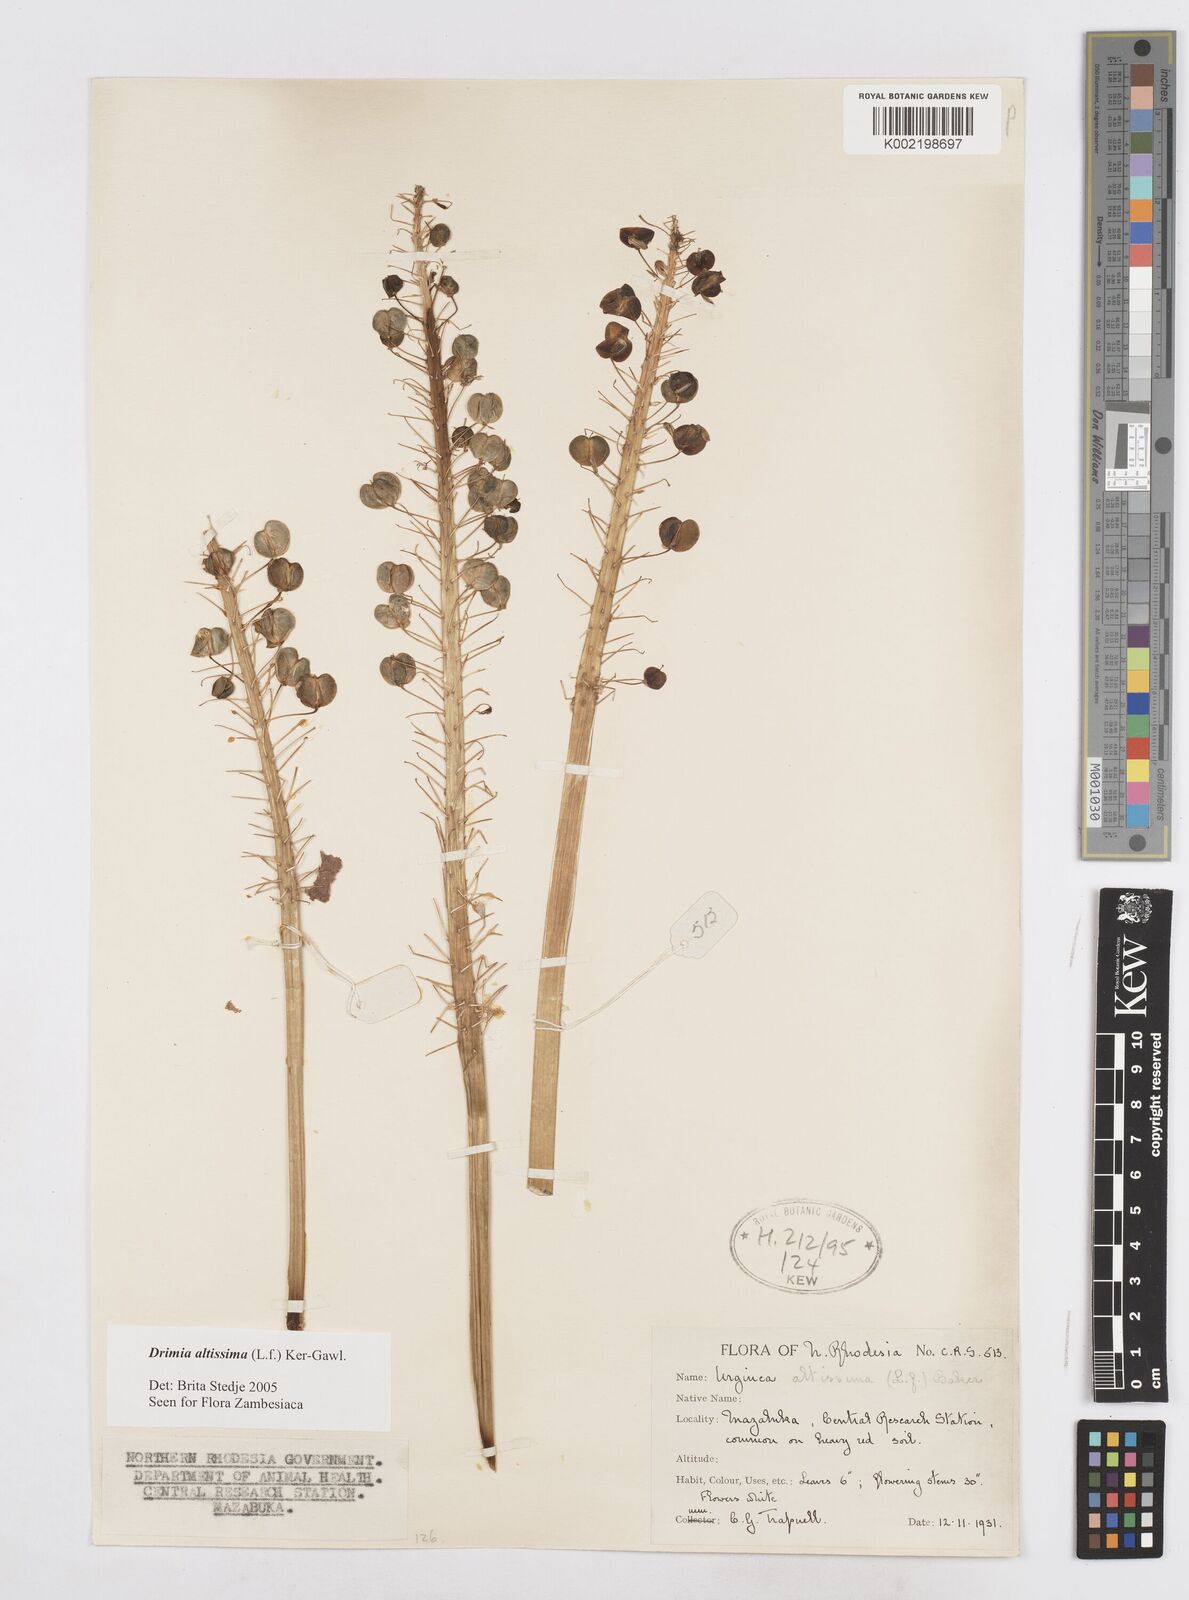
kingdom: Plantae
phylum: Tracheophyta
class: Liliopsida
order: Asparagales
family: Asparagaceae
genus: Drimia
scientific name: Drimia
